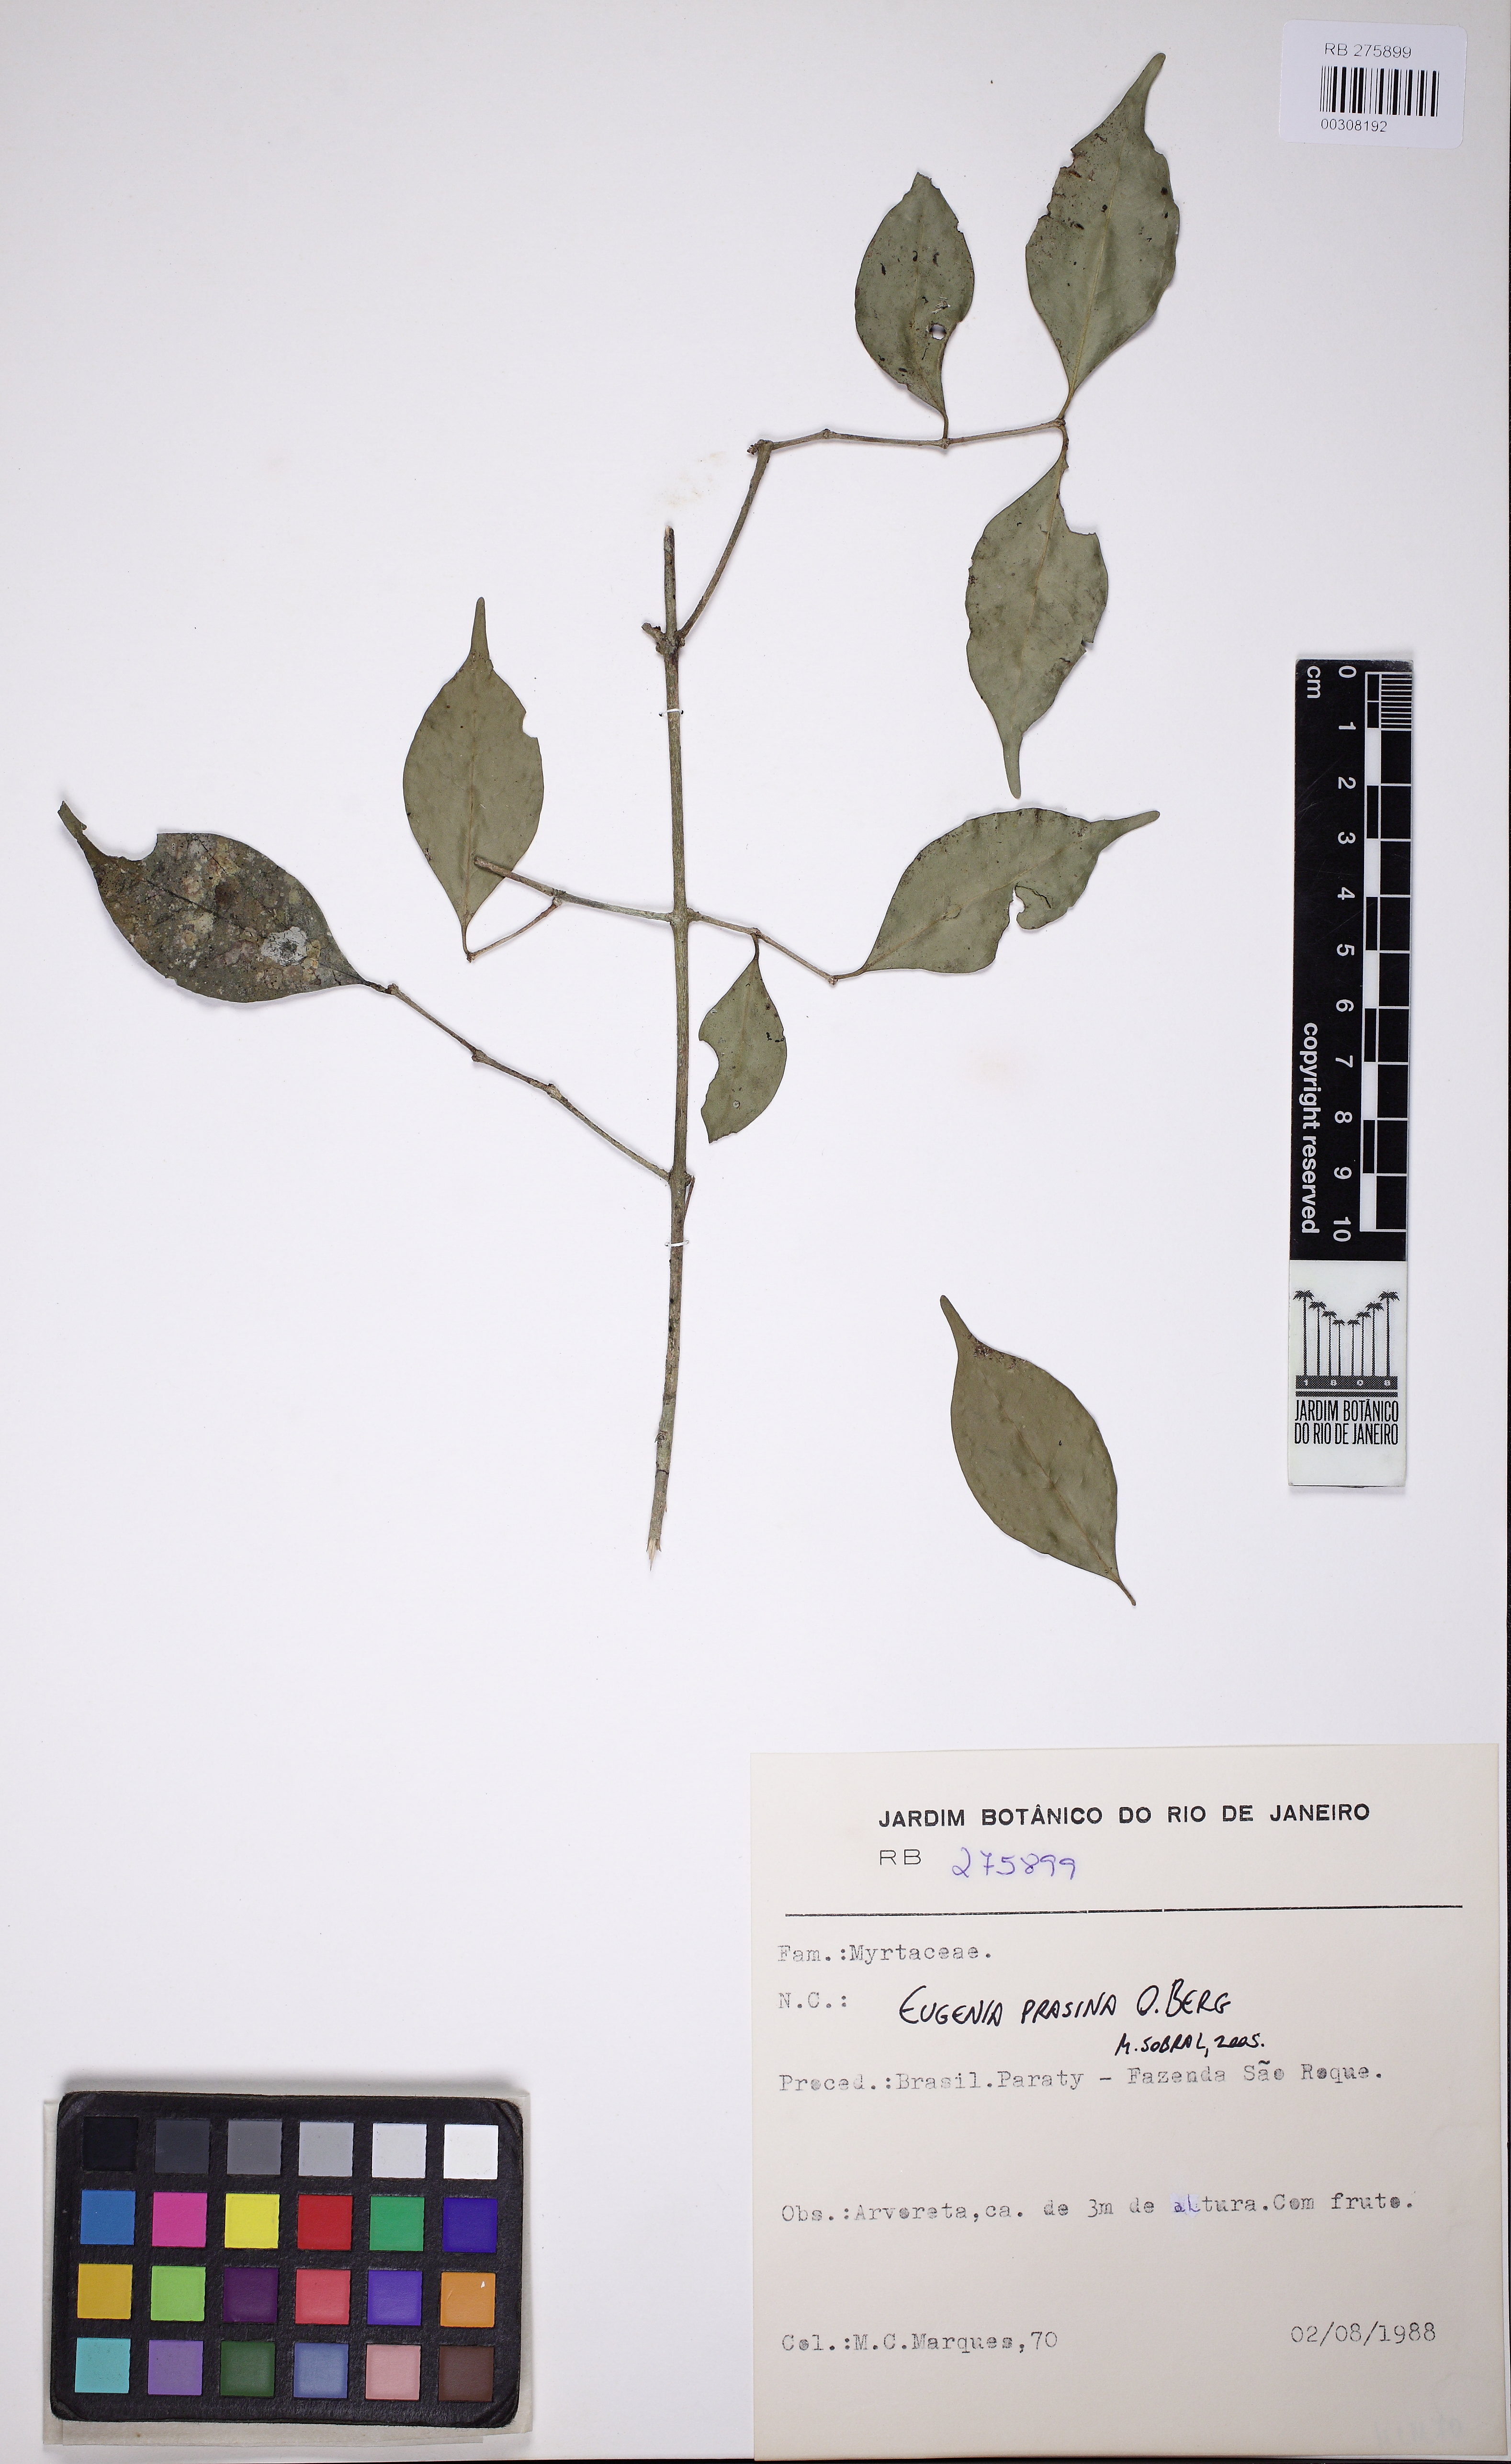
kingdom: Plantae
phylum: Tracheophyta
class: Magnoliopsida
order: Myrtales
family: Myrtaceae
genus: Eugenia
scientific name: Eugenia prasina
